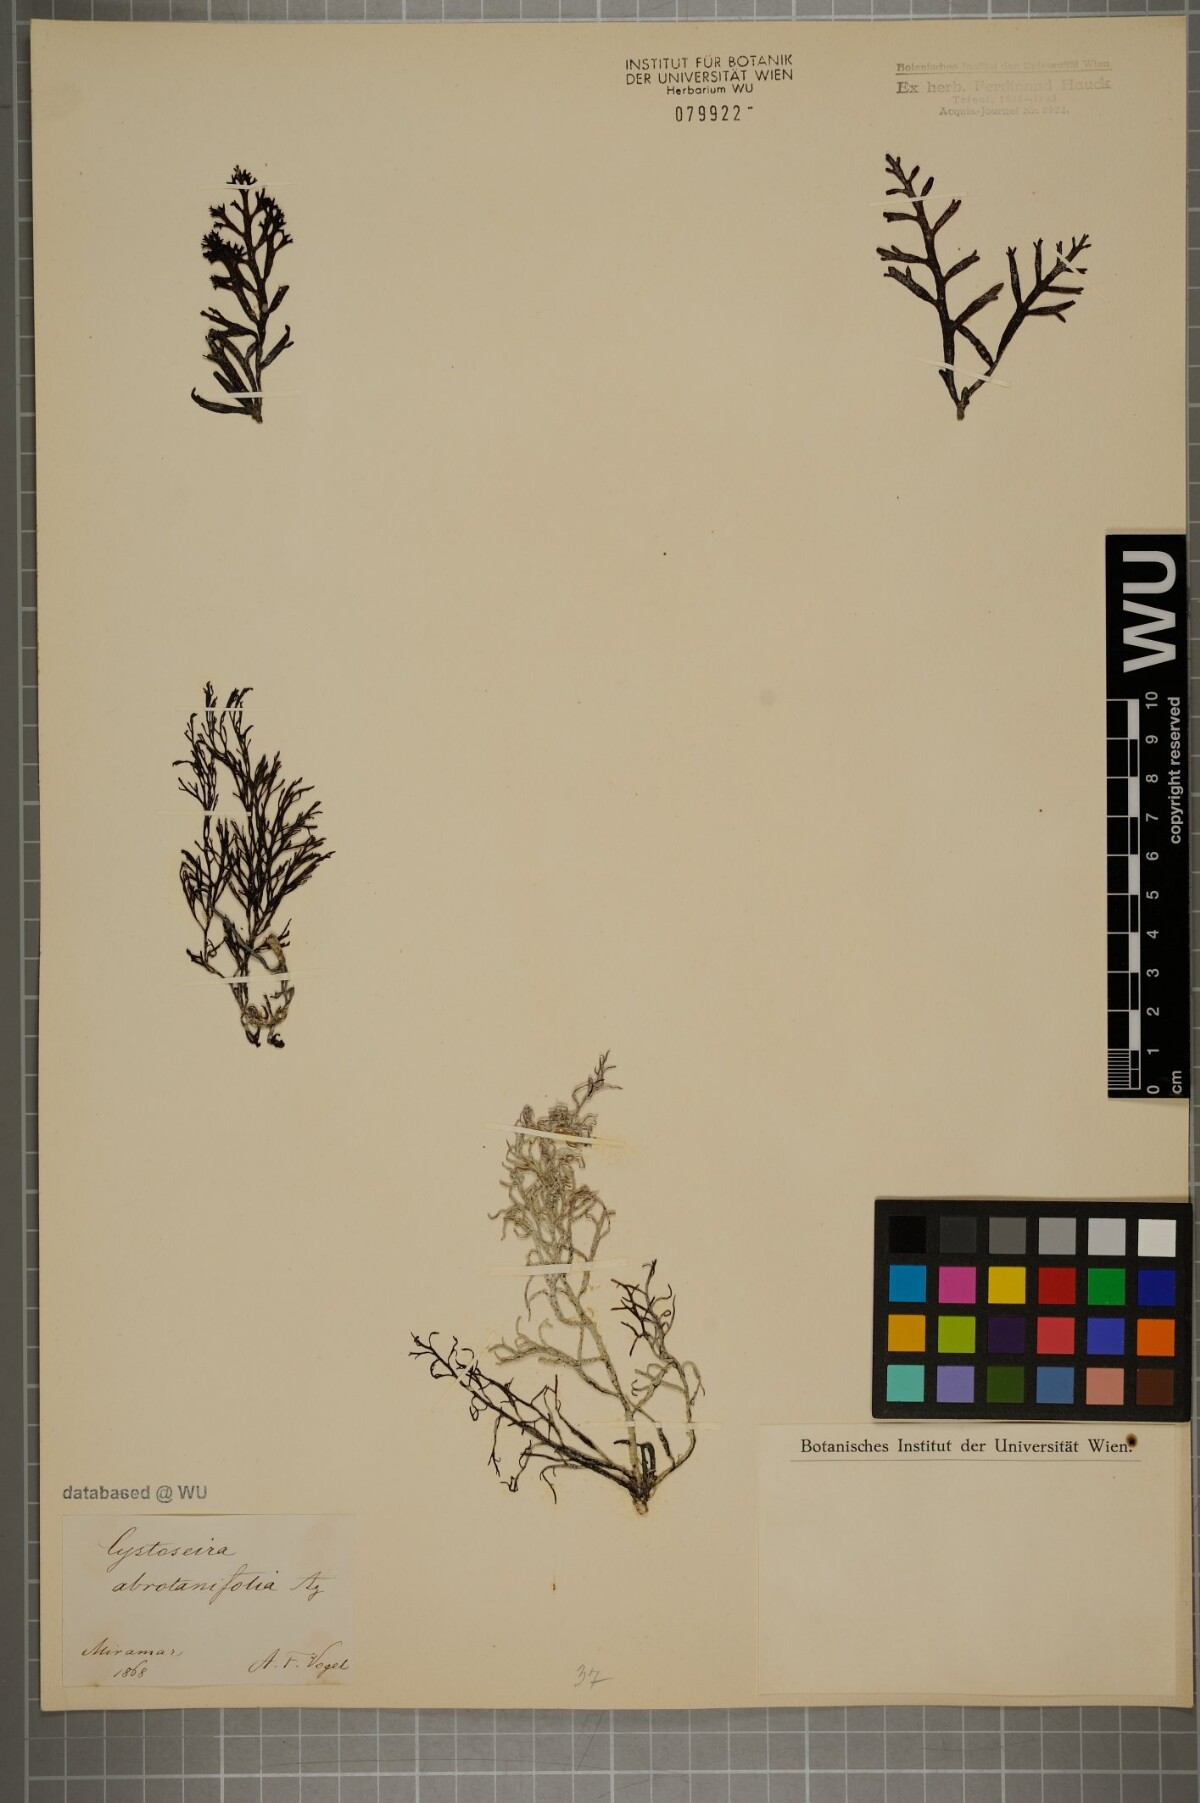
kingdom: Chromista
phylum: Ochrophyta
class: Phaeophyceae
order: Fucales
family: Sargassaceae
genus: Cystoseira
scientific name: Cystoseira foeniculacea
